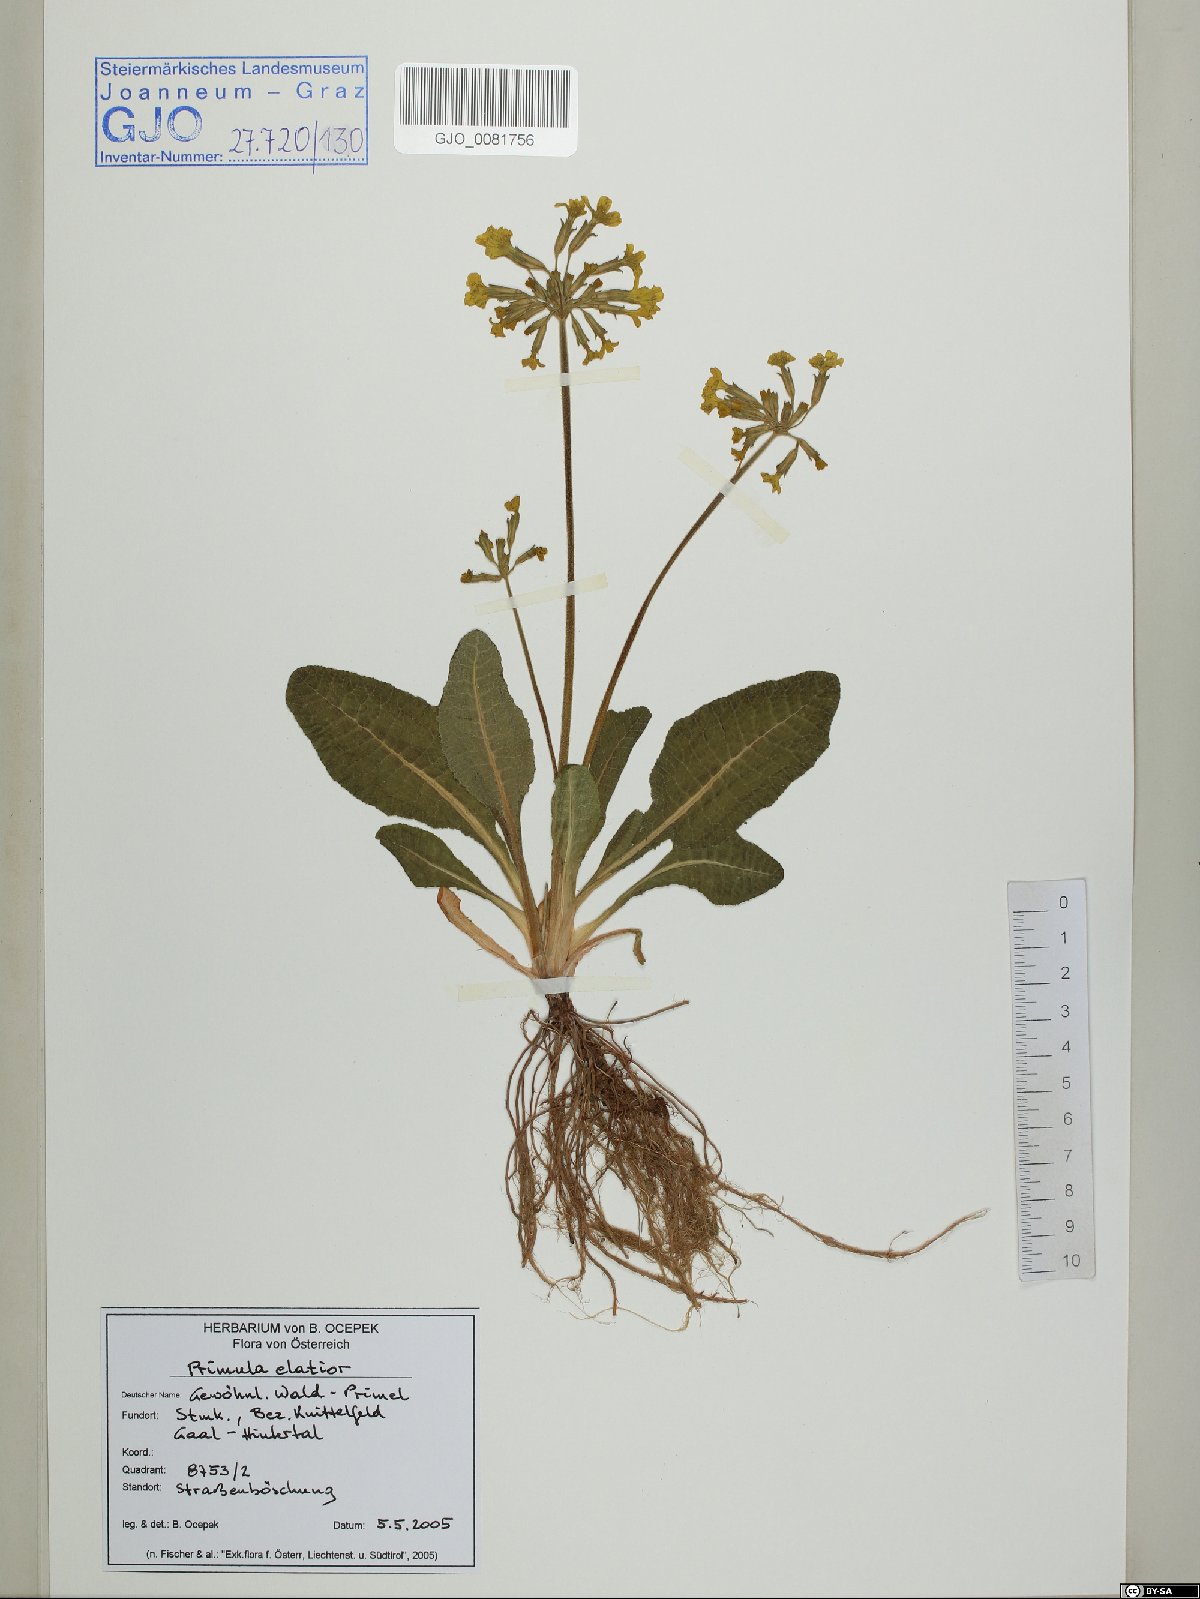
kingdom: Plantae
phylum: Tracheophyta
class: Magnoliopsida
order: Ericales
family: Primulaceae
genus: Primula
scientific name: Primula elatior
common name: Oxlip
